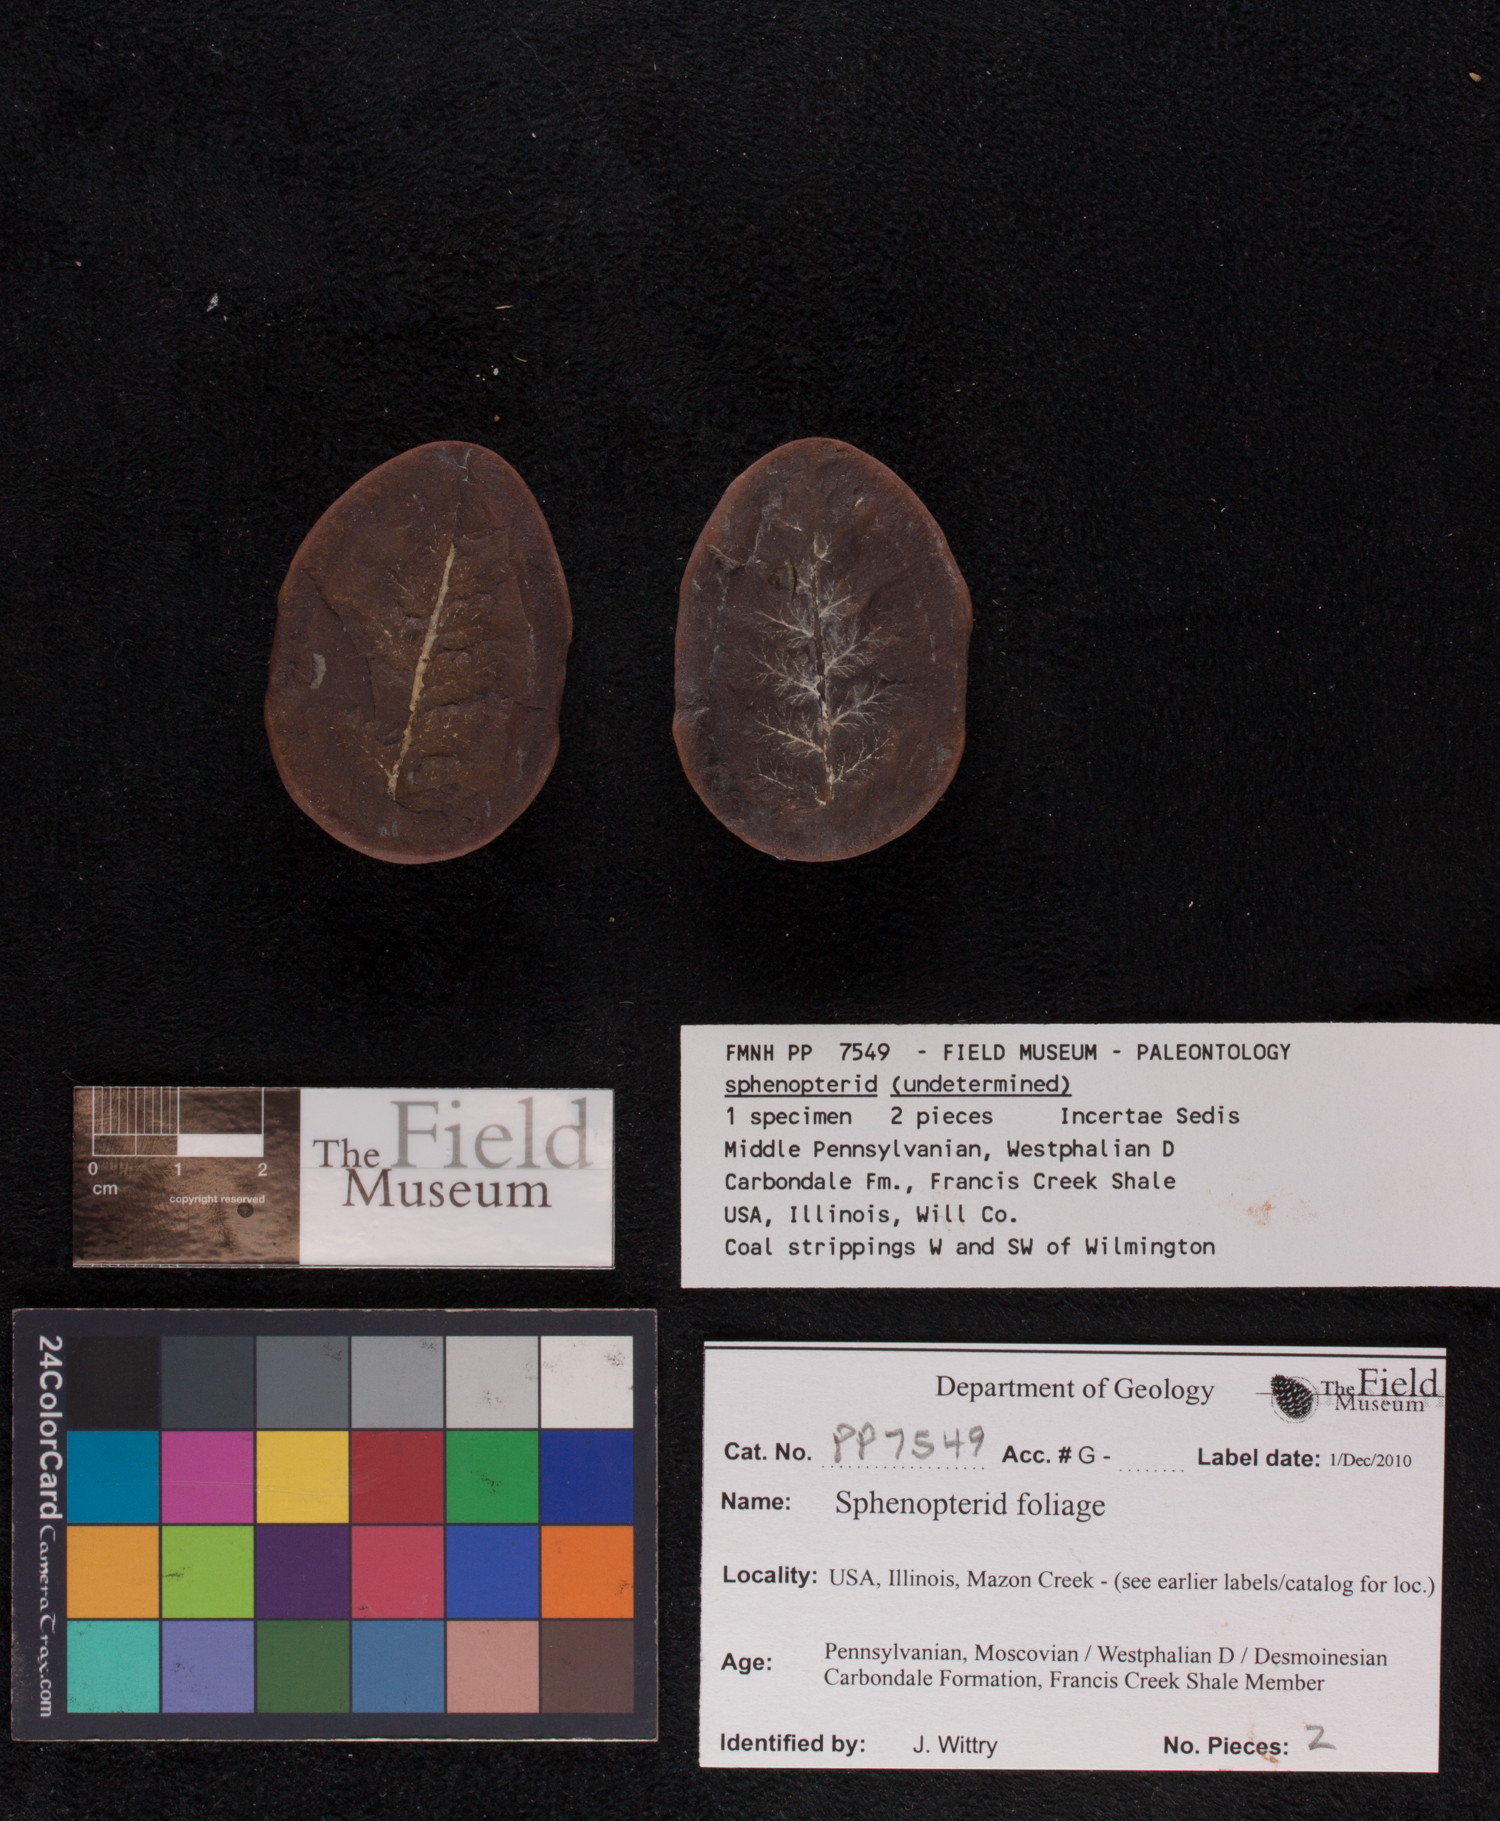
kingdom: Plantae
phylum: Tracheophyta
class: Polypodiopsida
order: Gleicheniales
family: Gleicheniaceae
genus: Oligocarpia
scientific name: Oligocarpia
